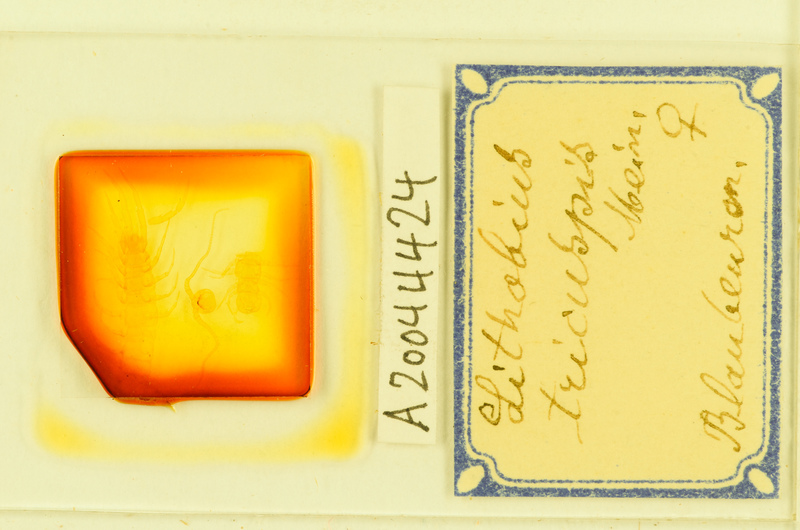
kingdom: Animalia
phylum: Arthropoda
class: Chilopoda
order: Lithobiomorpha
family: Lithobiidae
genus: Lithobius
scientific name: Lithobius tricuspis
